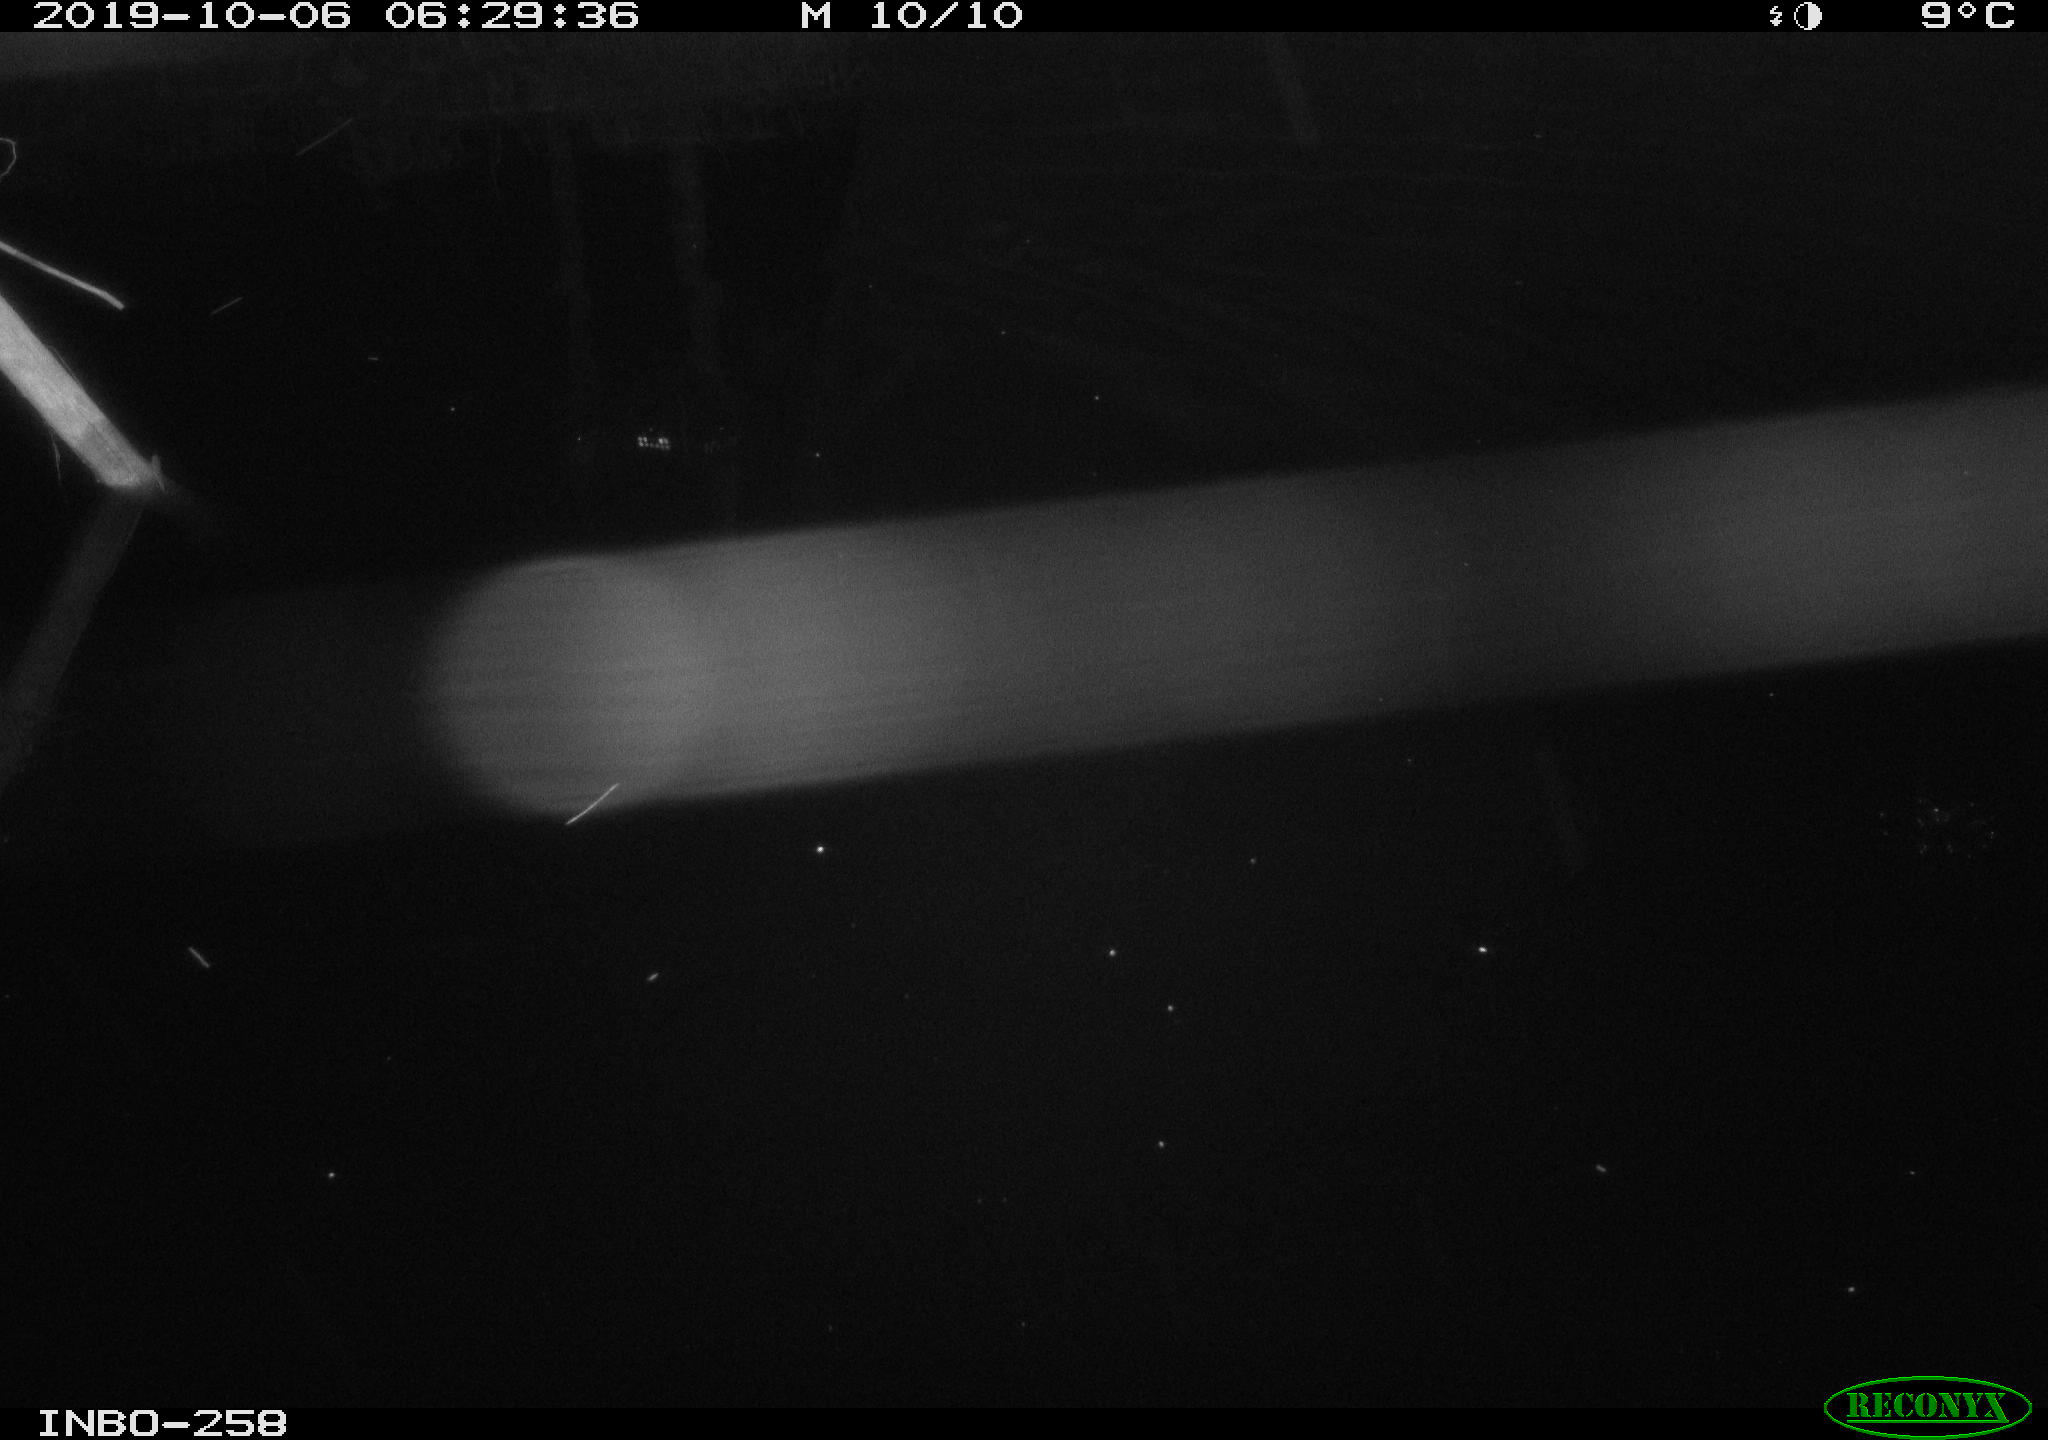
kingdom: Animalia
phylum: Chordata
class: Mammalia
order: Rodentia
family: Muridae
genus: Rattus
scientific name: Rattus norvegicus
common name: Brown rat
